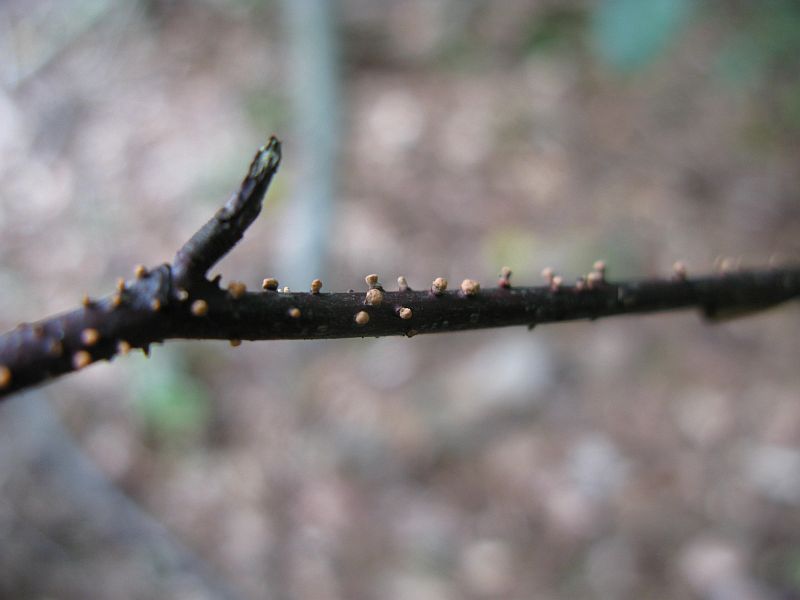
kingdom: Fungi
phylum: Ascomycota
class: Sordariomycetes
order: Hypocreales
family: Nectriaceae
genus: Nectria
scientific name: Nectria cinnabarina
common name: almindelig cinnobersvamp
